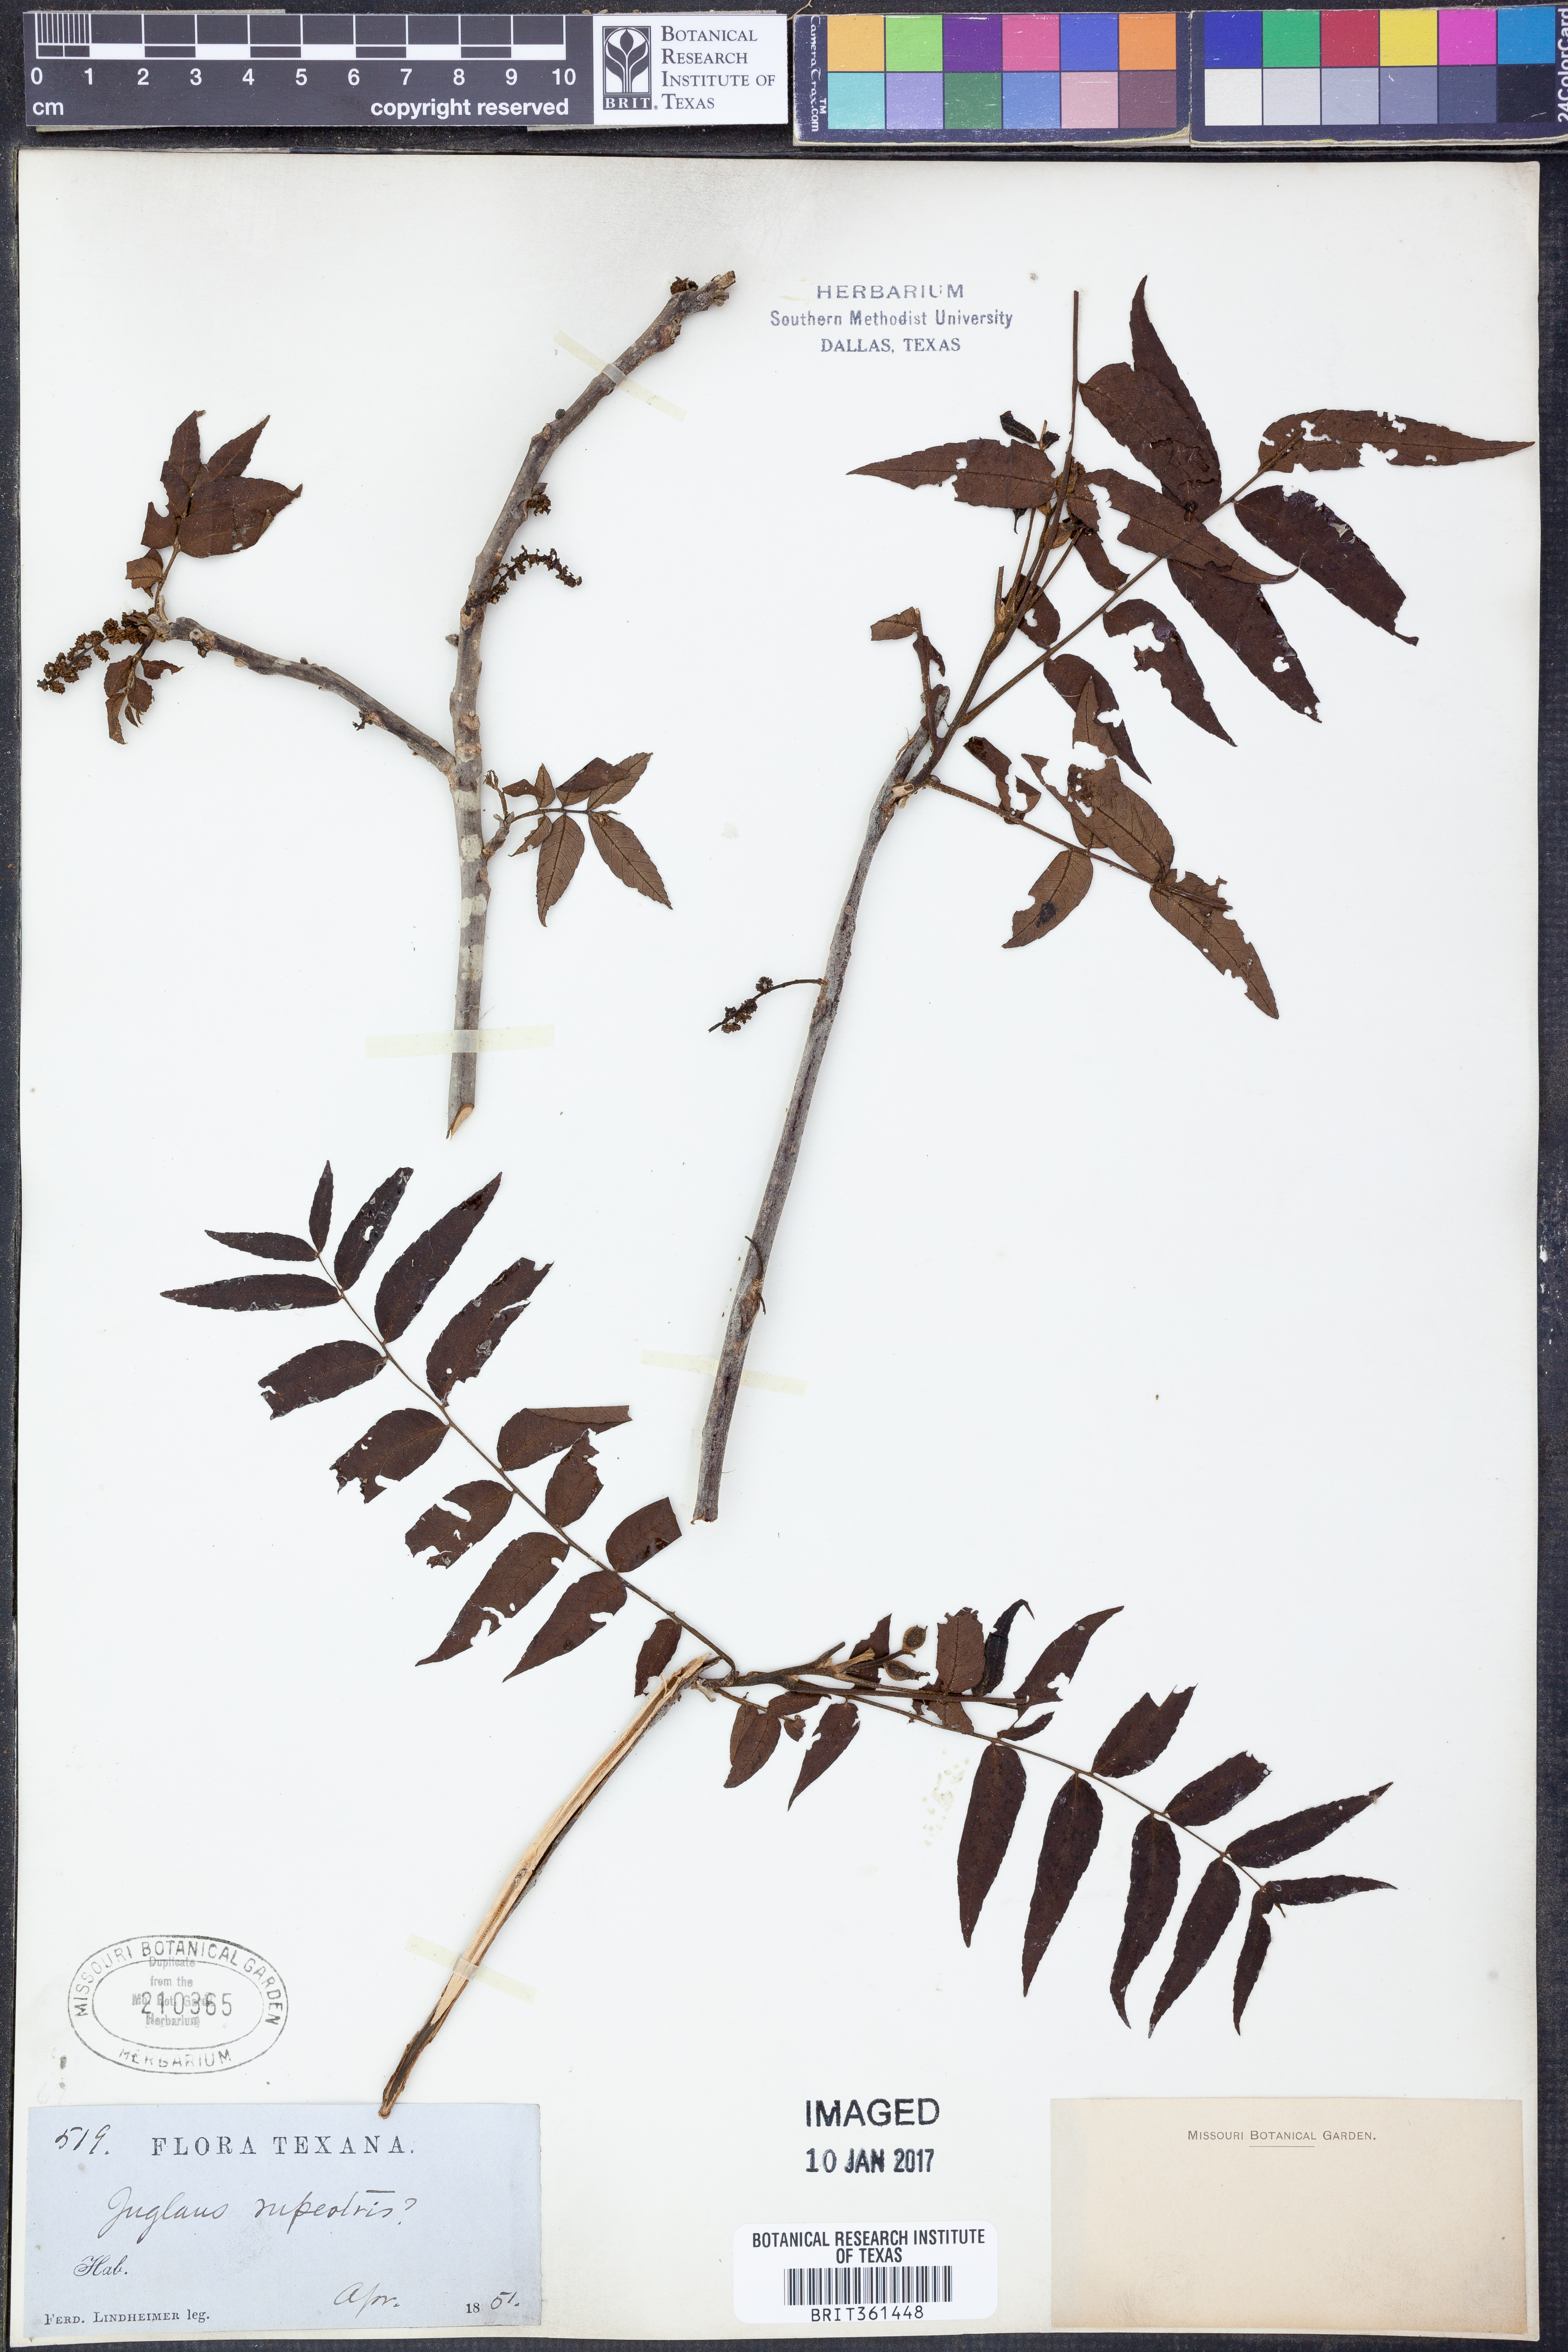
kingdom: Plantae
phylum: Tracheophyta
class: Magnoliopsida
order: Fagales
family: Juglandaceae
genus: Juglans
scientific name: Juglans microcarpa
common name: Texas walnut
